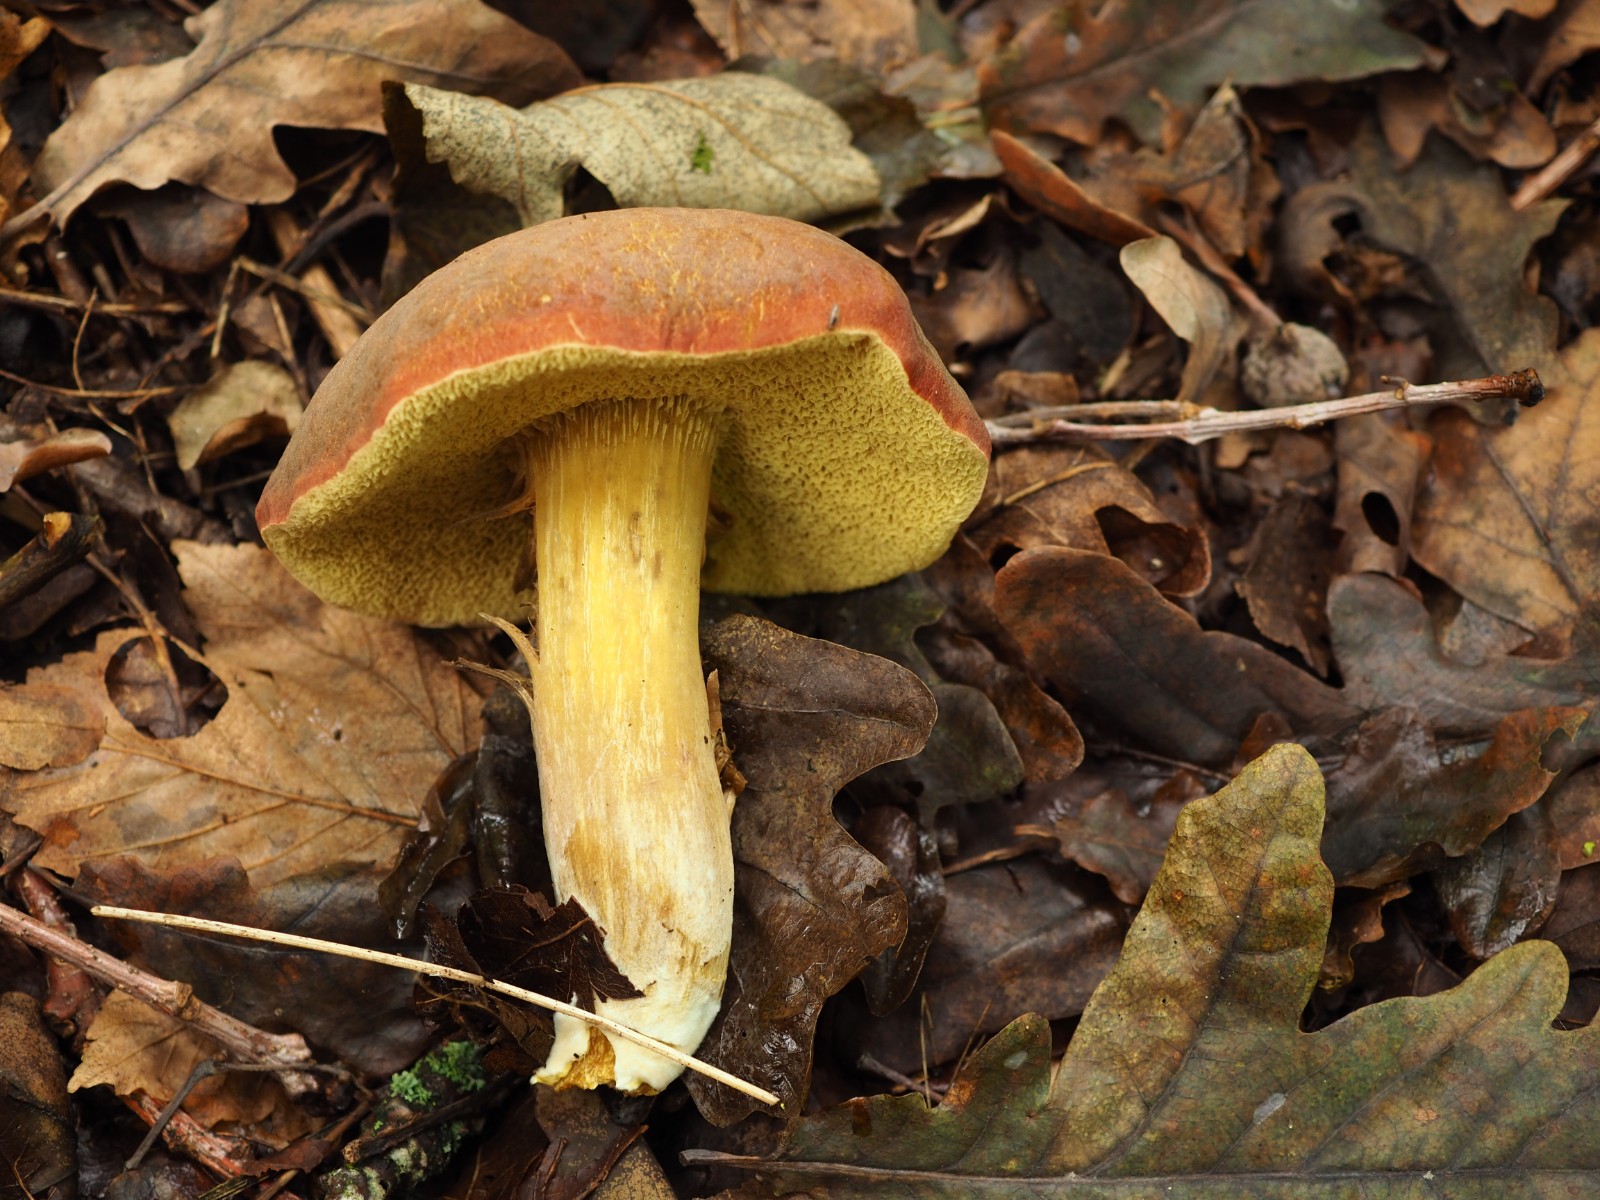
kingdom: Fungi
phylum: Basidiomycota
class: Agaricomycetes
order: Boletales
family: Boletaceae
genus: Hortiboletus
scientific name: Hortiboletus engelii
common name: fersken-rørhat
